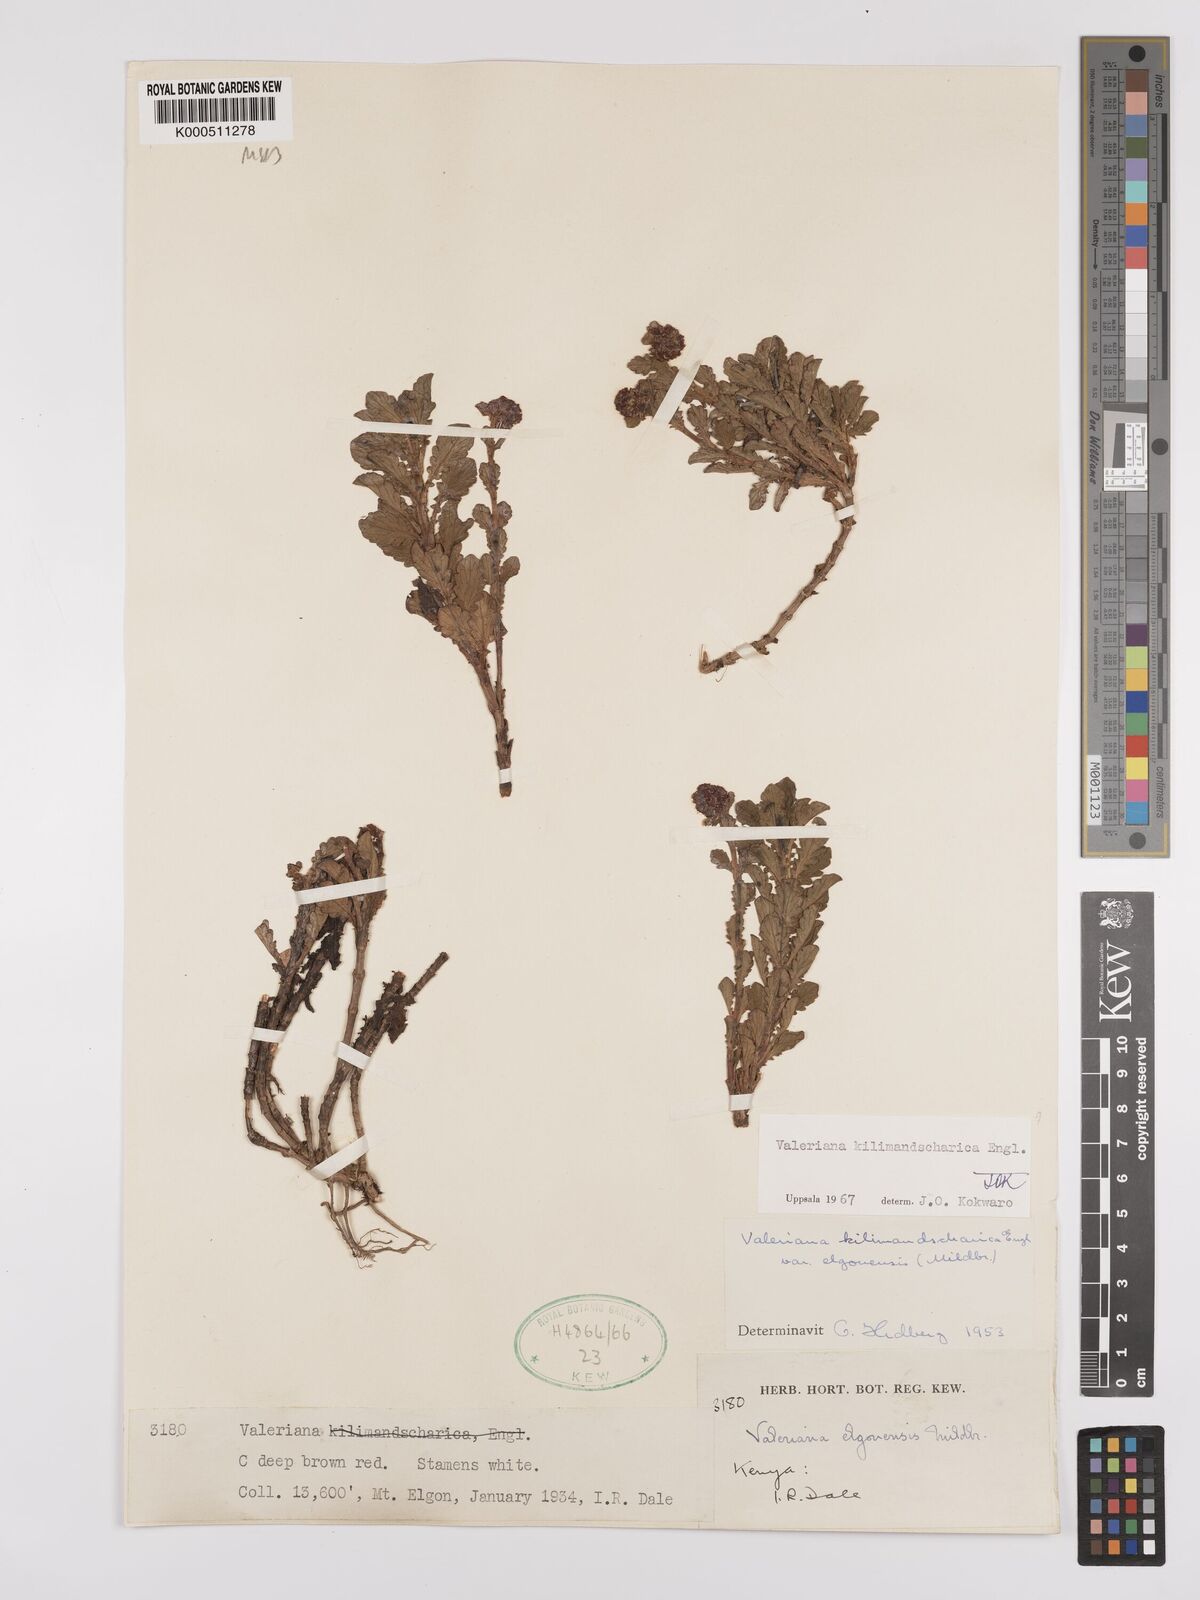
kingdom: Plantae
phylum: Tracheophyta
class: Magnoliopsida
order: Dipsacales
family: Caprifoliaceae
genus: Valeriana
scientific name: Valeriana kilimandscharica
